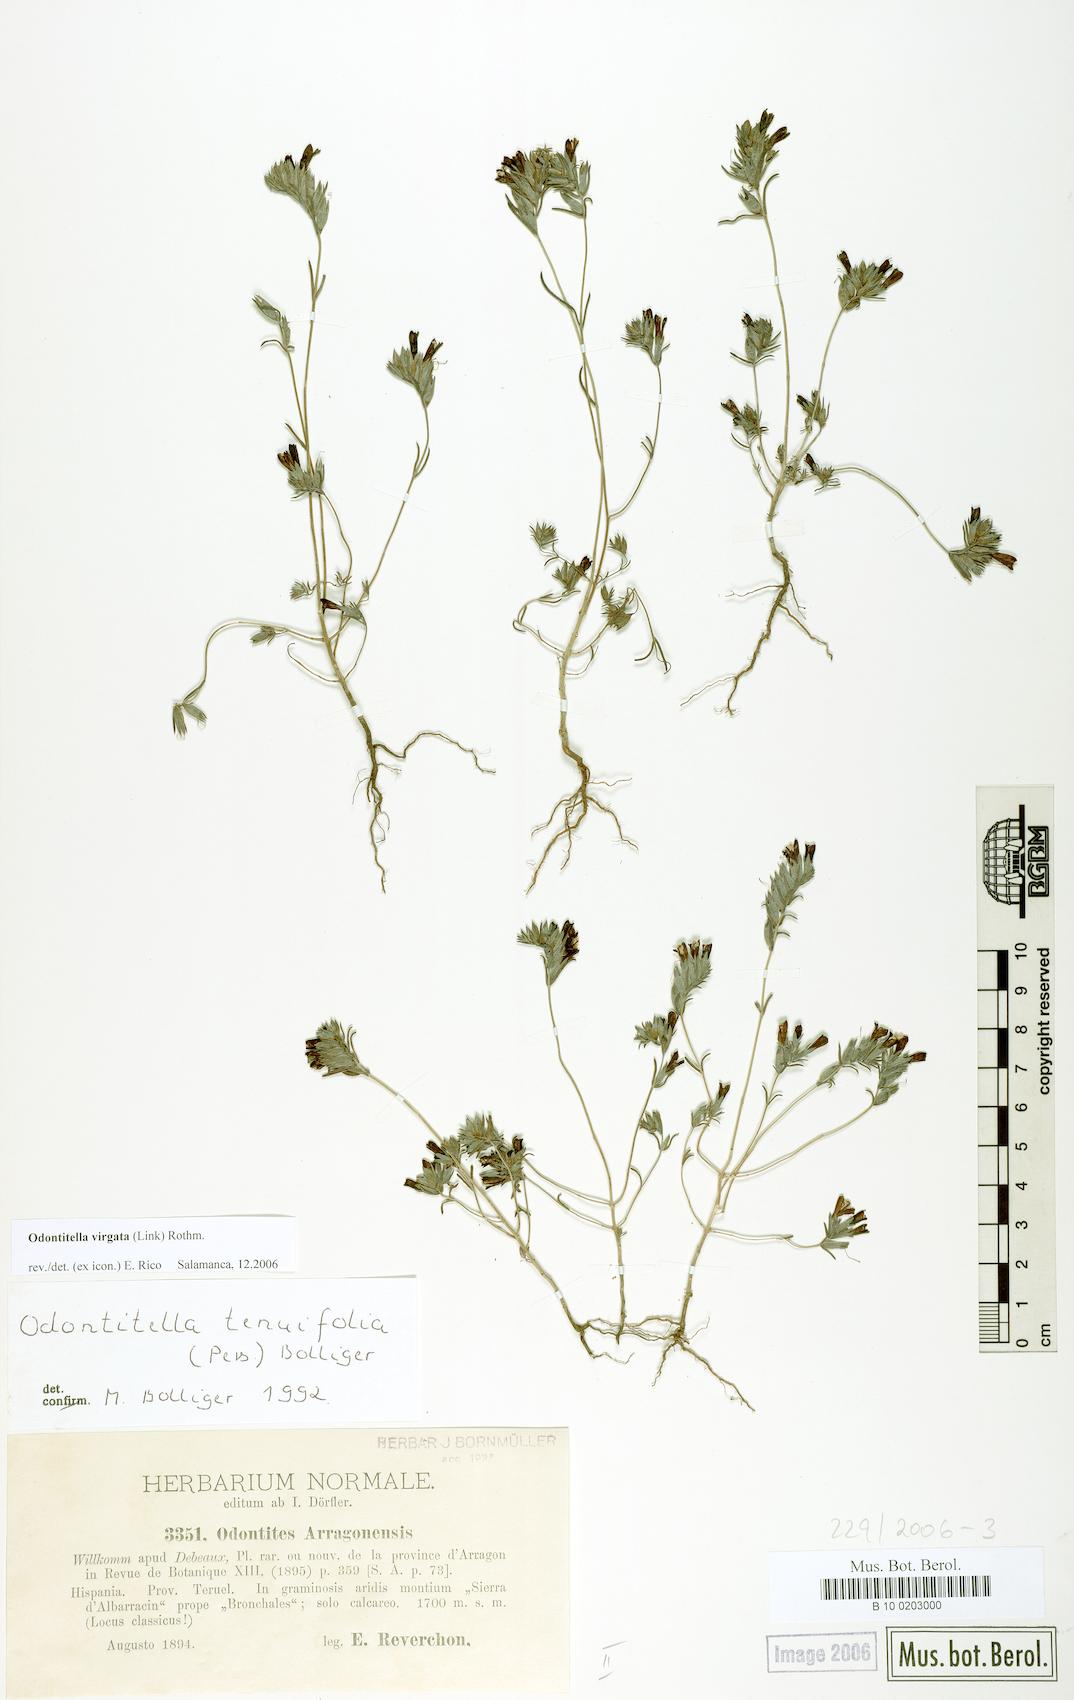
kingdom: Plantae
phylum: Tracheophyta
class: Magnoliopsida
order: Lamiales
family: Orobanchaceae
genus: Odontitella
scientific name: Odontitella virgata
